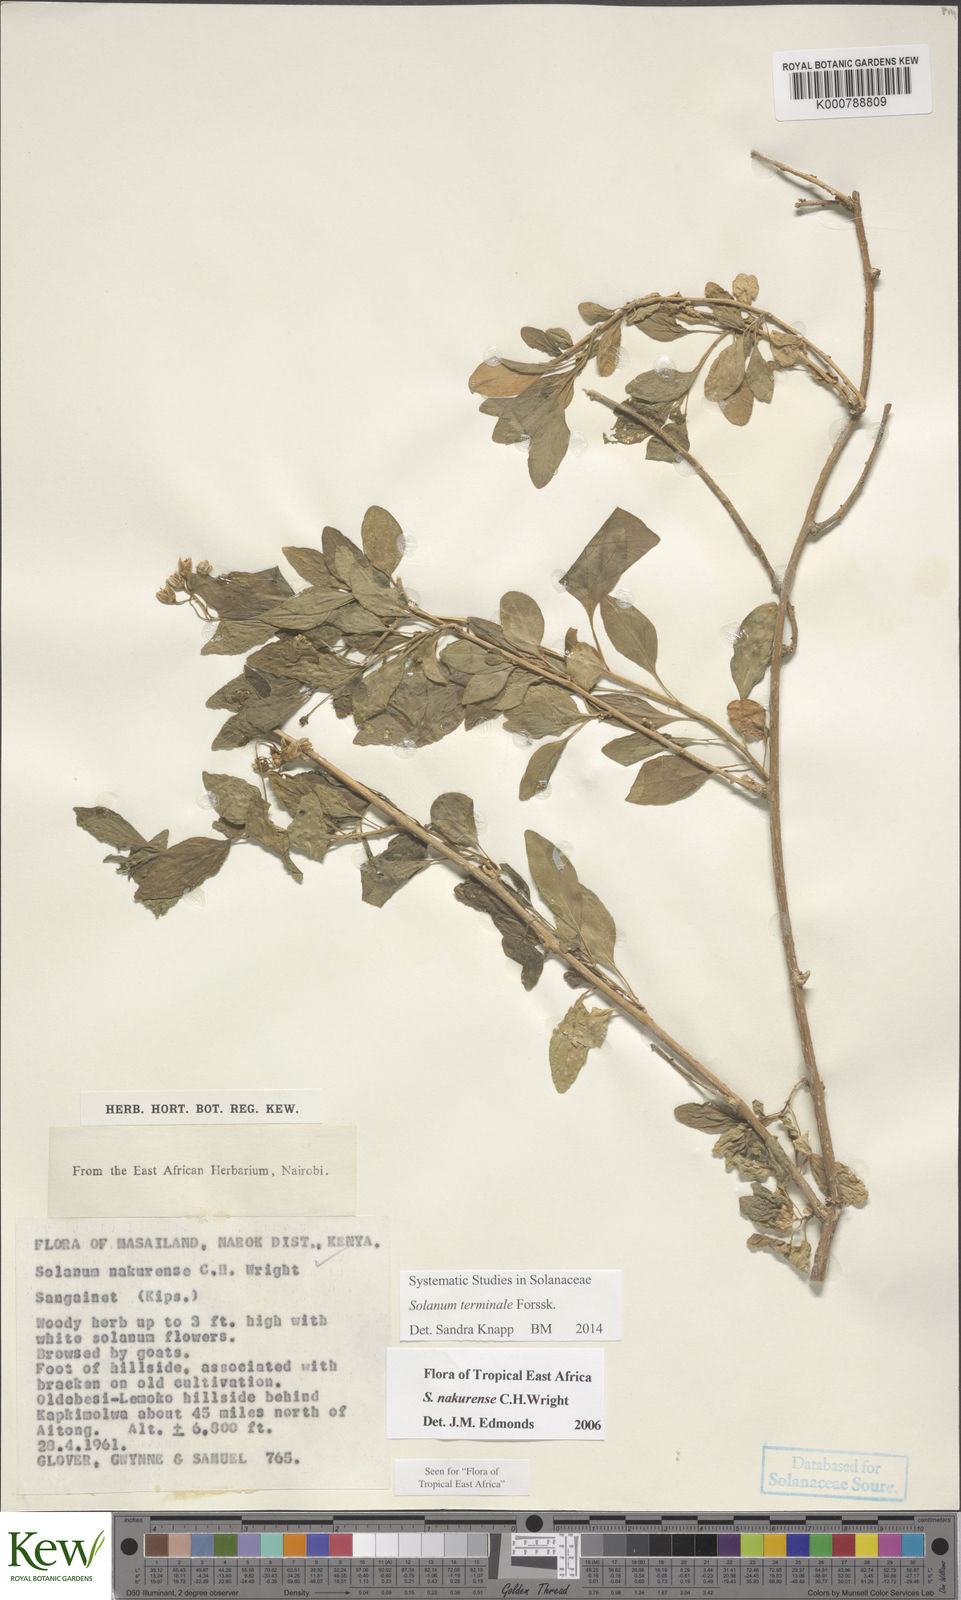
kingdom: Plantae
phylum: Tracheophyta
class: Magnoliopsida
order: Solanales
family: Solanaceae
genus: Solanum
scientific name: Solanum nakurense
